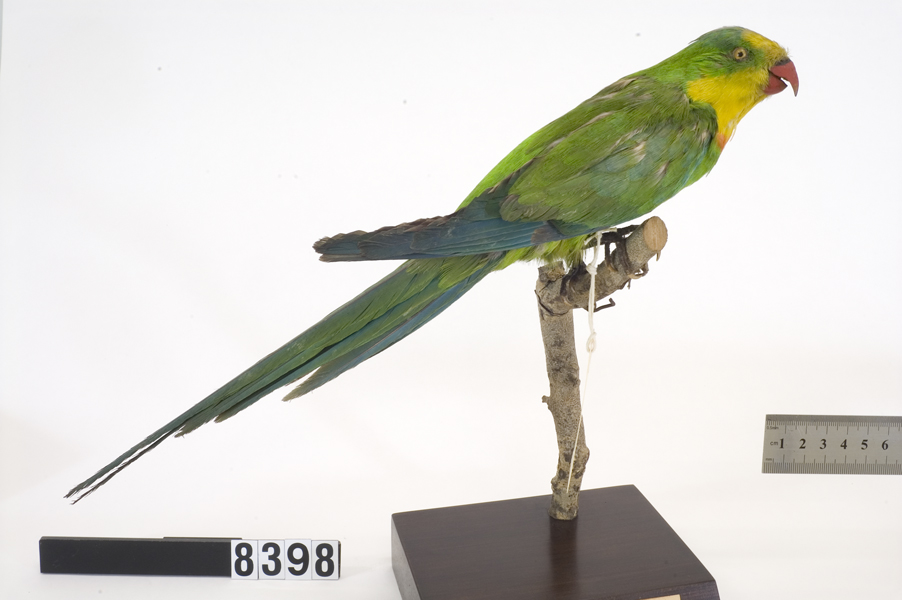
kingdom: Animalia
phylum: Chordata
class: Aves
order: Psittaciformes
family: Psittacidae
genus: Polytelis
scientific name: Polytelis swainsonii
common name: Superb parrot
